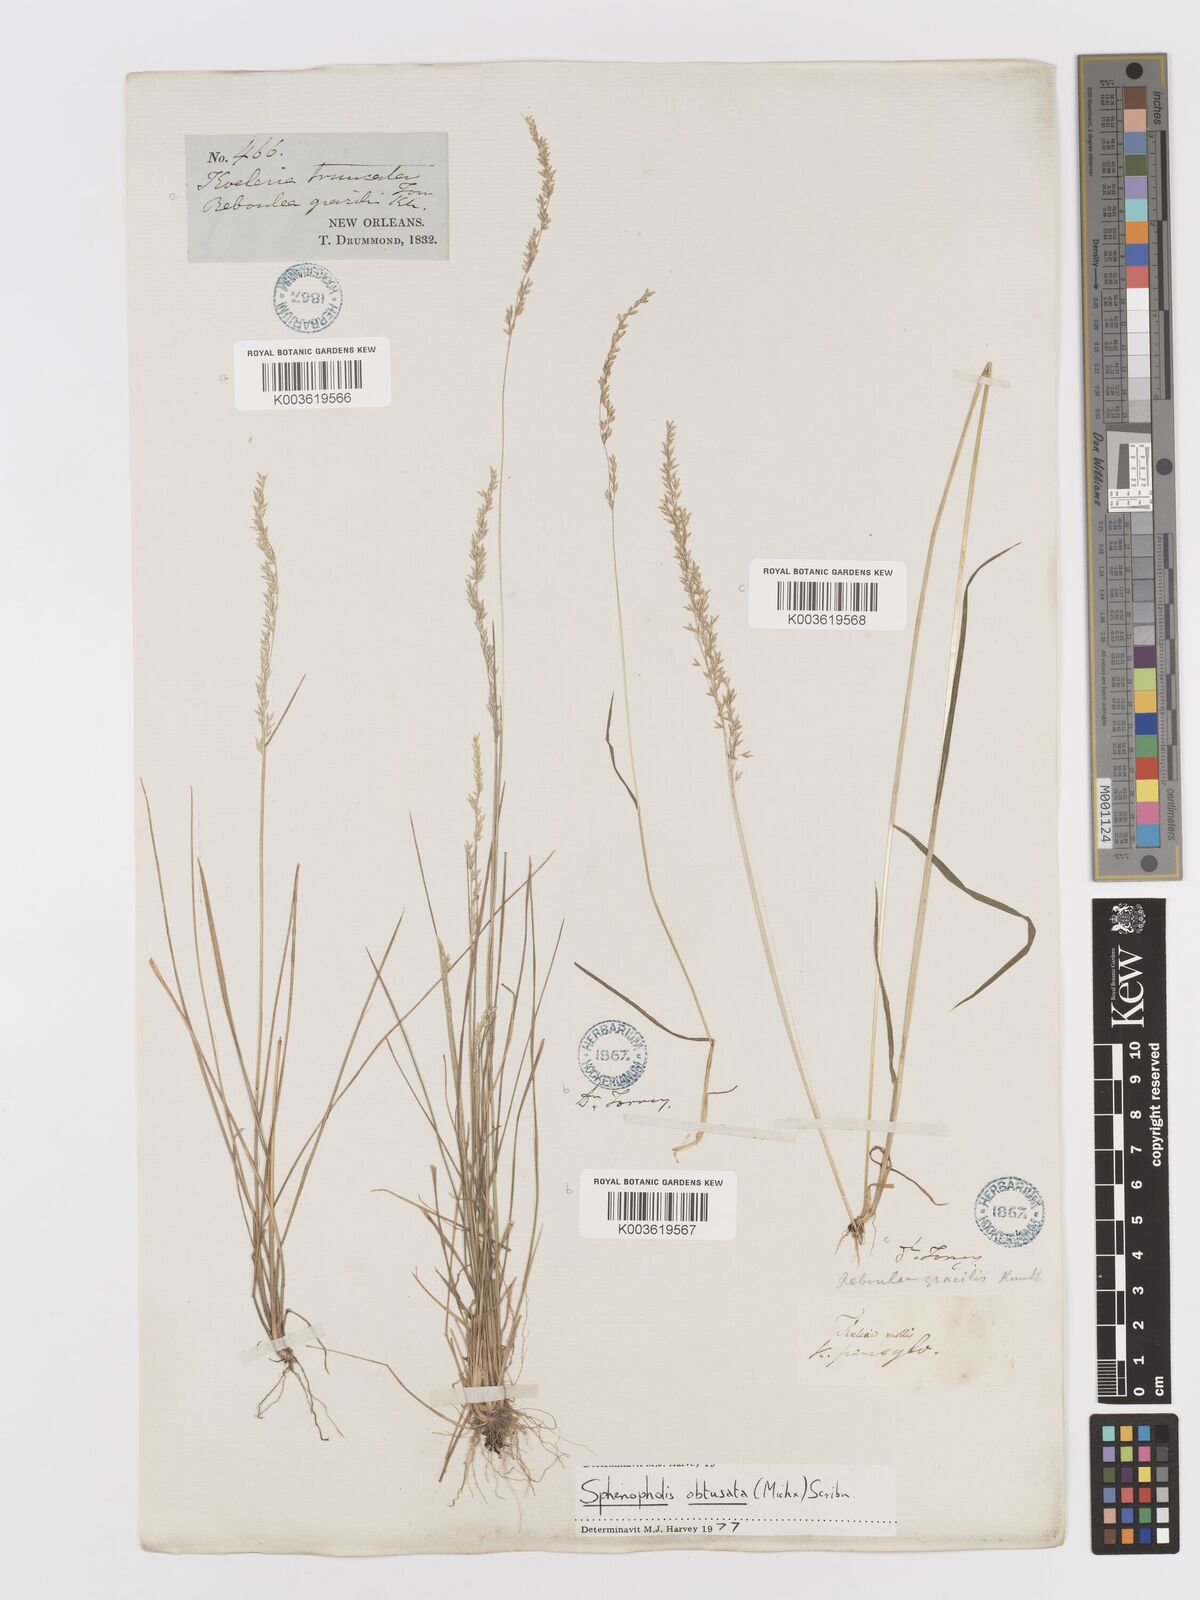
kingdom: Plantae
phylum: Tracheophyta
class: Liliopsida
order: Poales
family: Poaceae
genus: Sphenopholis
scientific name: Sphenopholis obtusata
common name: Prairie grass
